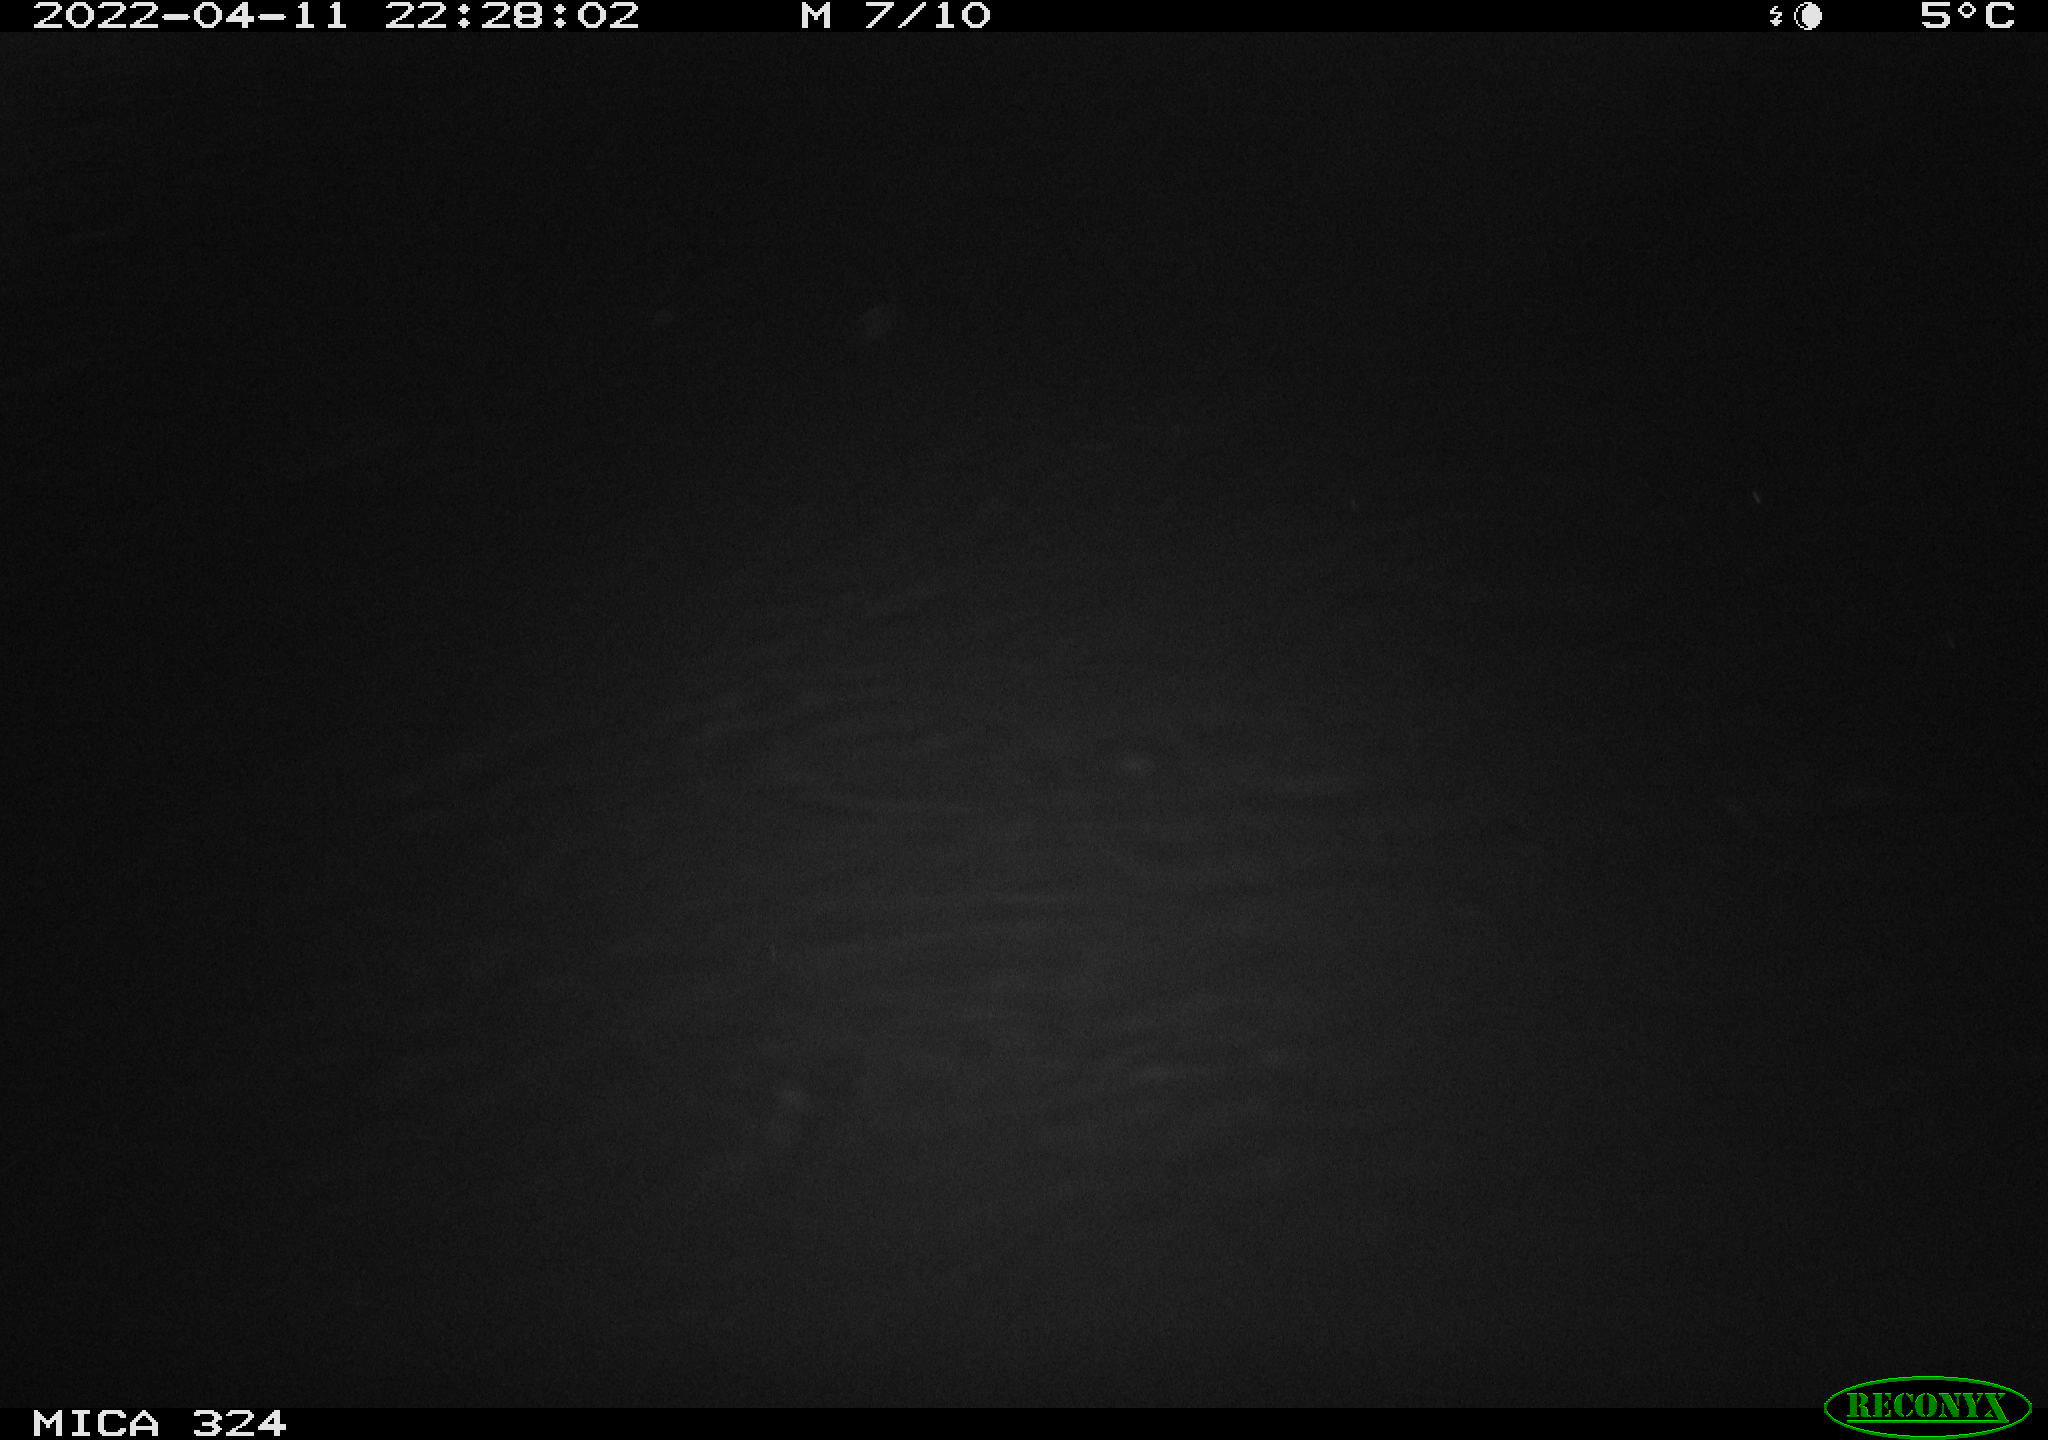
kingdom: Animalia
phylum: Chordata
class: Mammalia
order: Rodentia
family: Muridae
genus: Rattus
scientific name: Rattus norvegicus
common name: Brown rat
